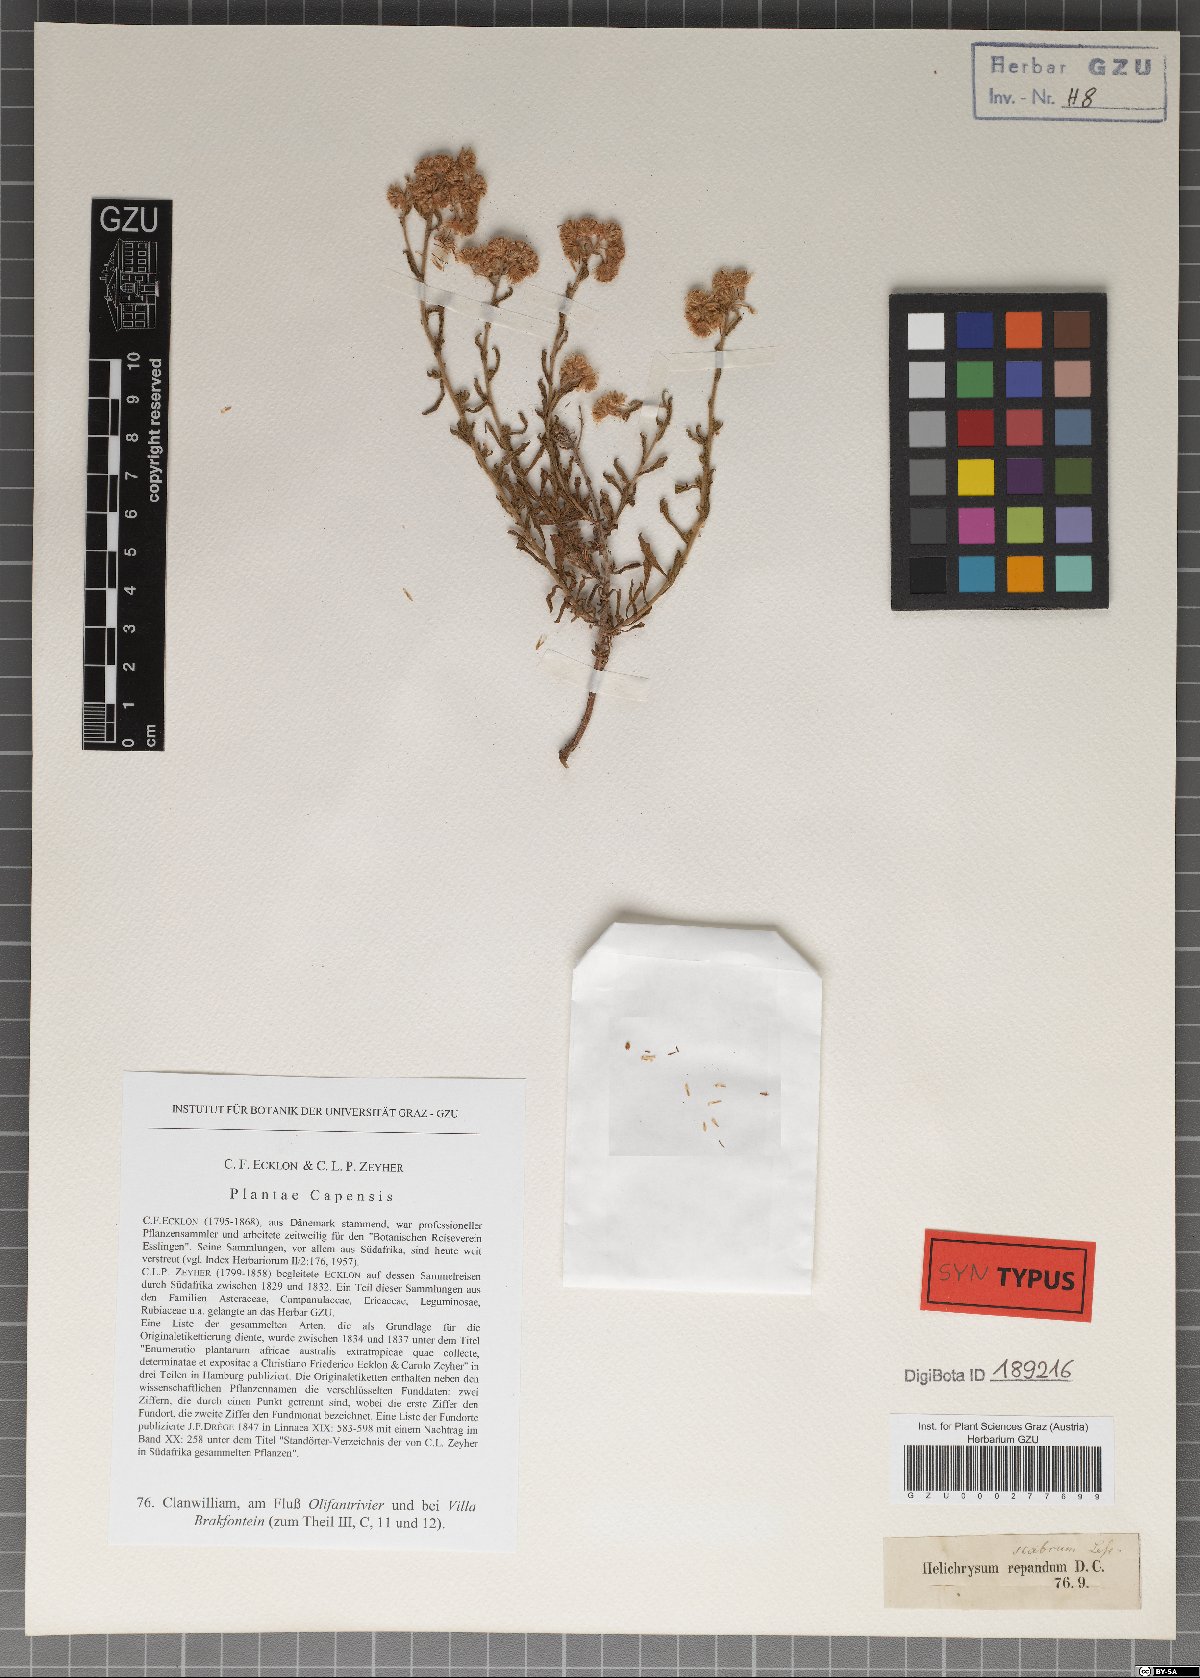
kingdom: Plantae
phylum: Tracheophyta
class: Magnoliopsida
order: Asterales
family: Asteraceae
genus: Helichrysum
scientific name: Helichrysum scabrum
